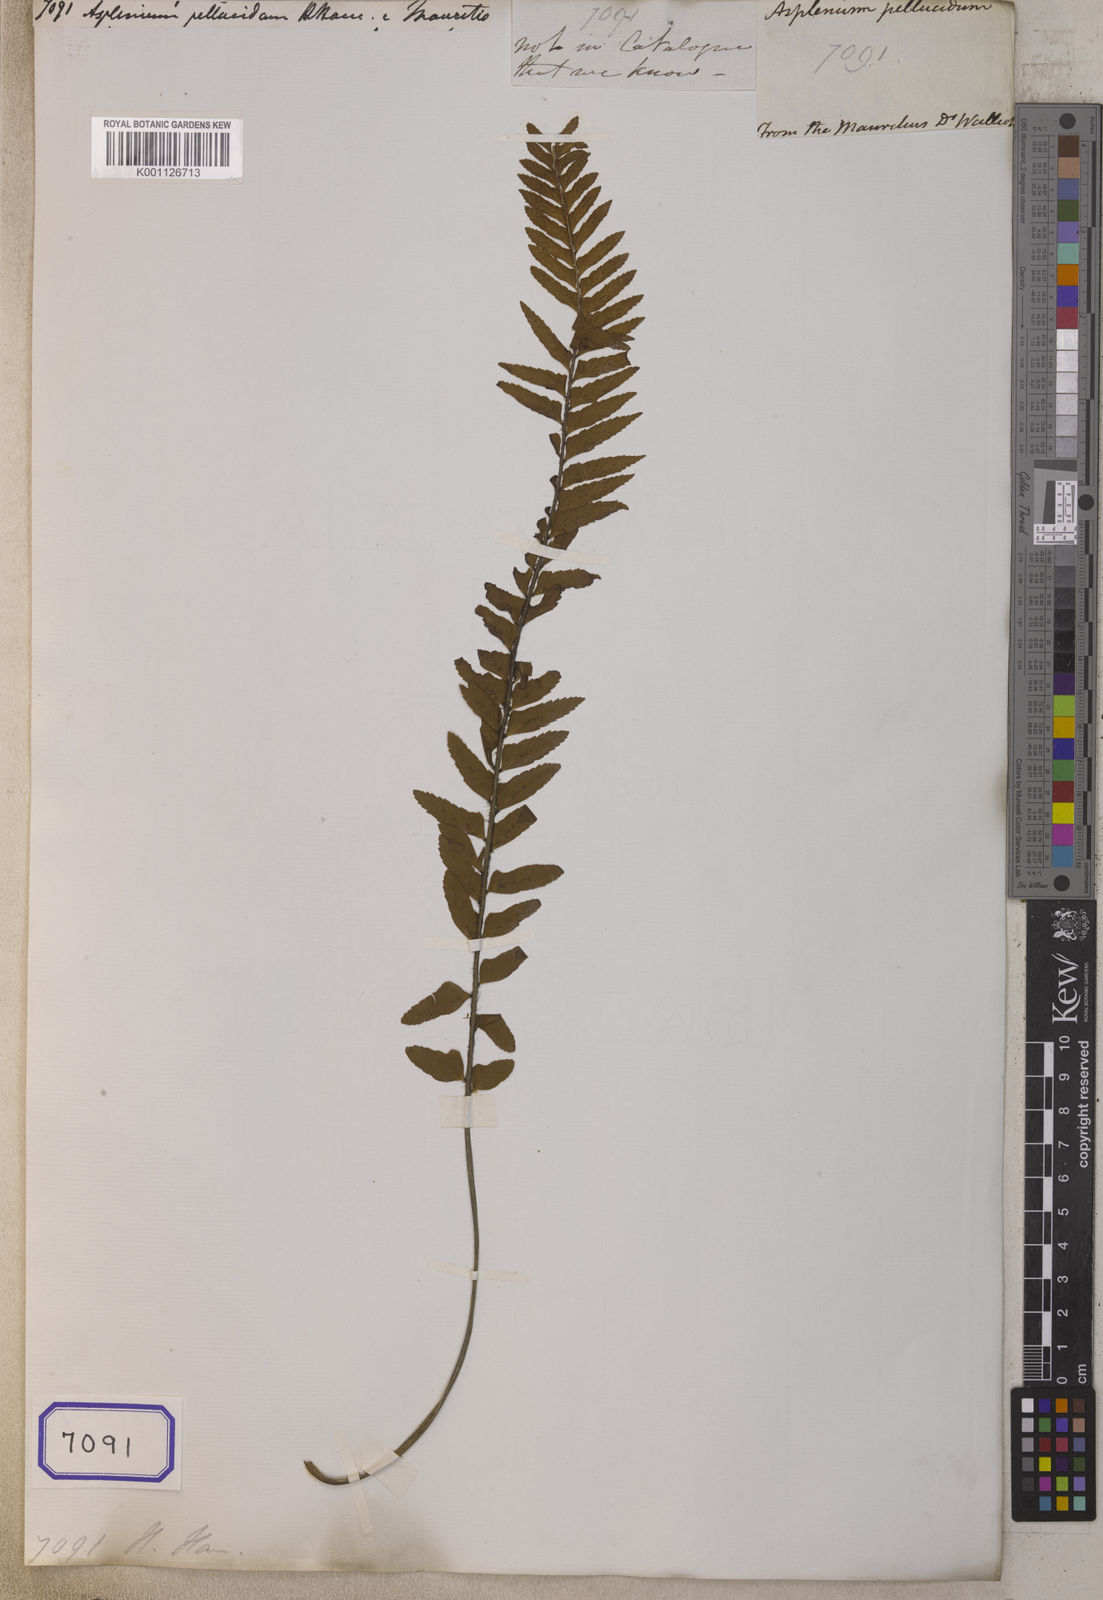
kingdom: Plantae
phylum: Tracheophyta
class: Polypodiopsida
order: Polypodiales
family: Aspleniaceae
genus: Asplenium
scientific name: Asplenium pellucidum
